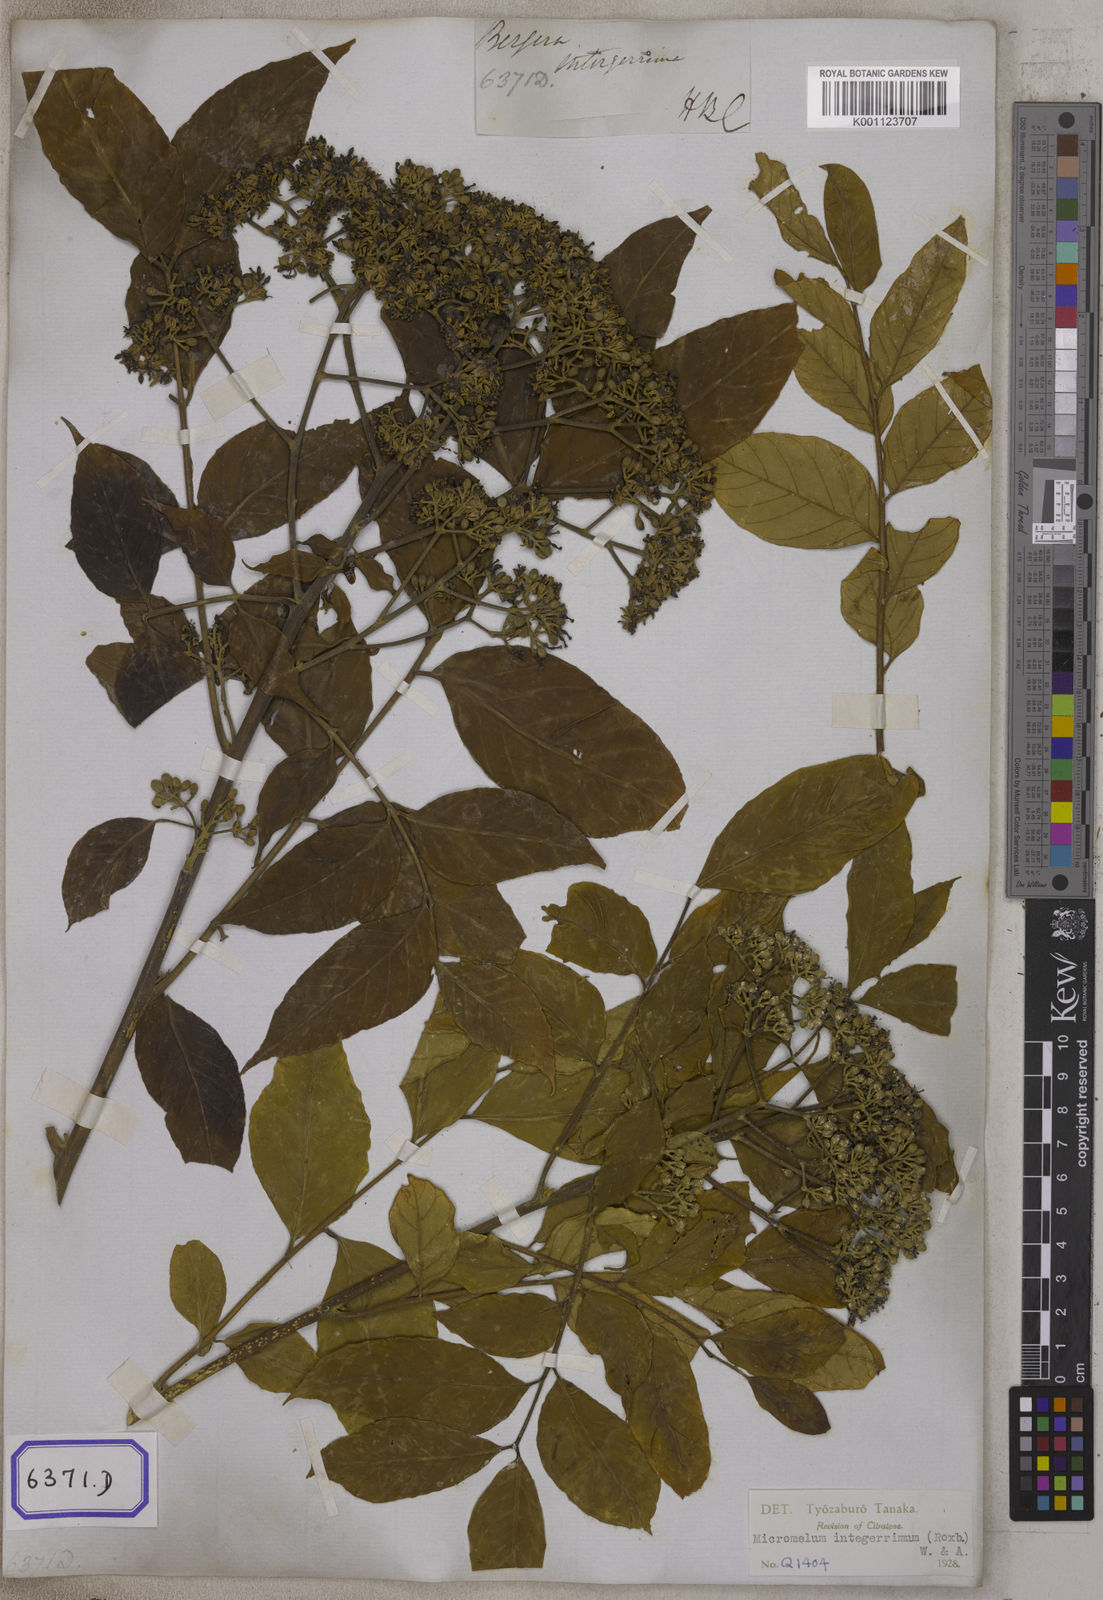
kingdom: Plantae
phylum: Tracheophyta
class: Magnoliopsida
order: Sapindales
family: Rutaceae
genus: Bergera
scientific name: Bergera
